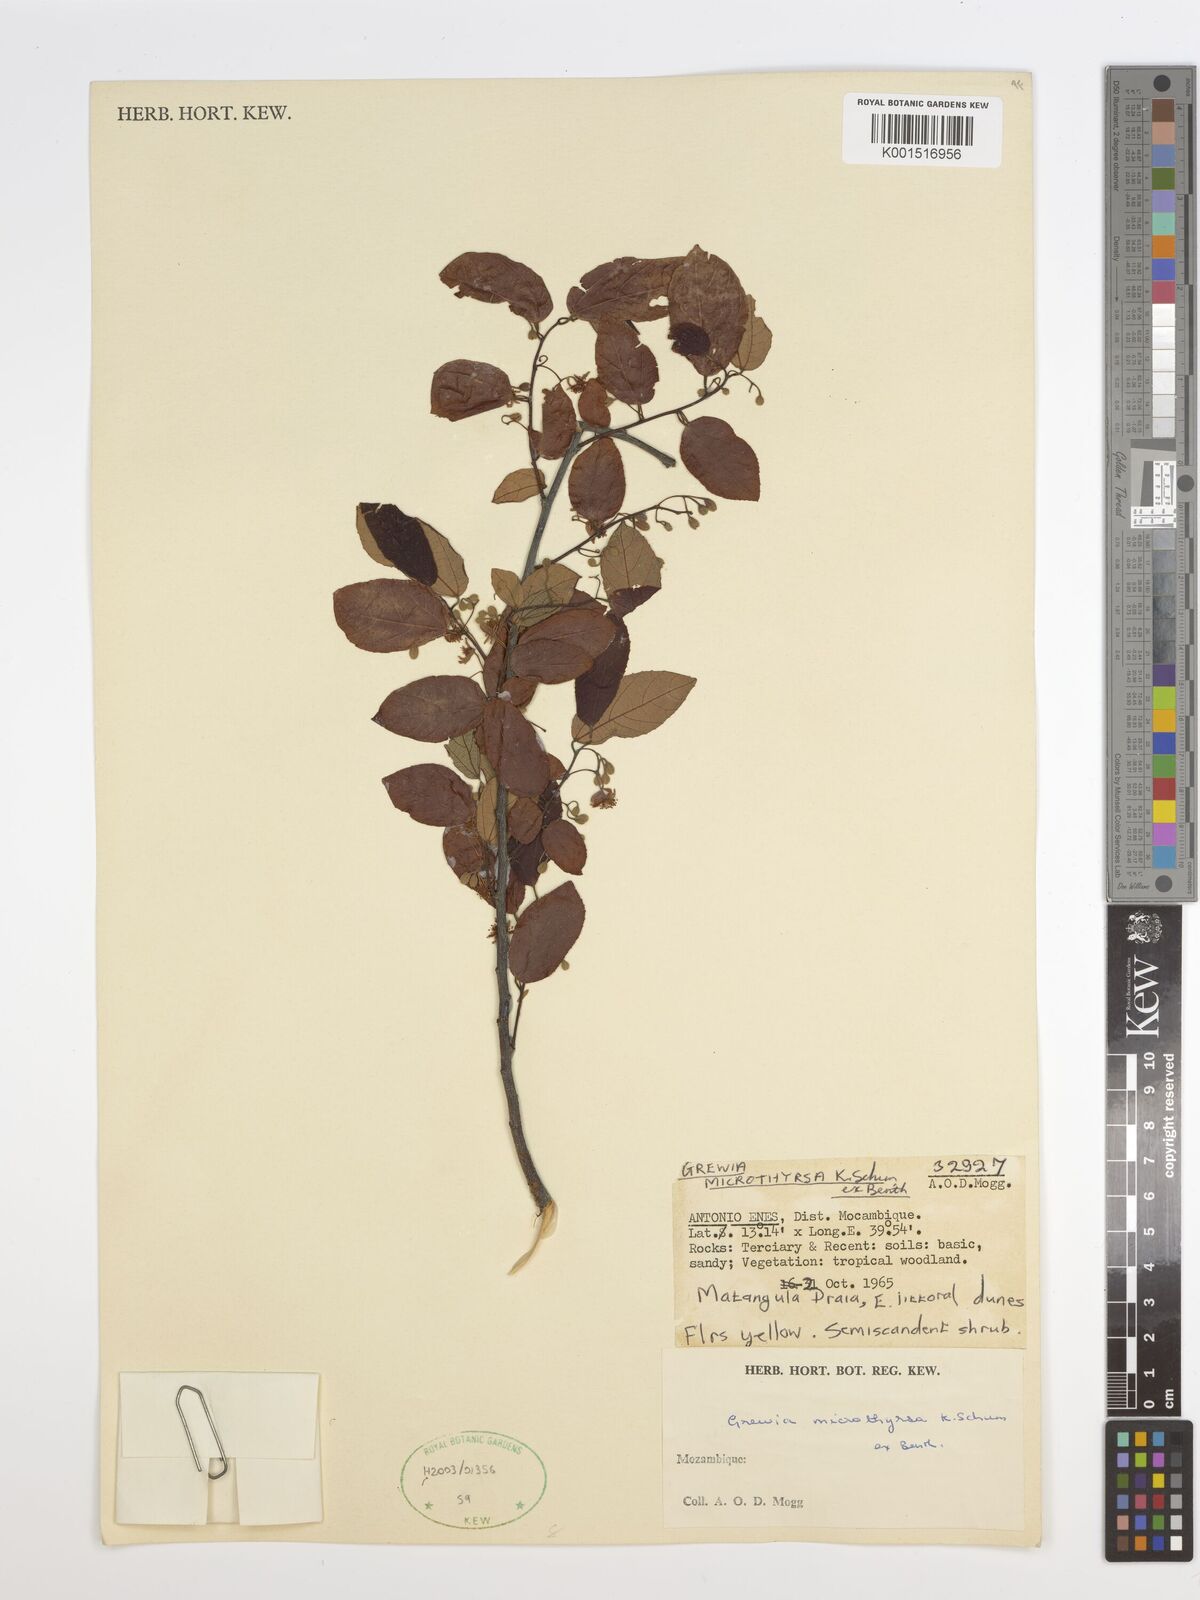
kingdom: Plantae
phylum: Tracheophyta
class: Magnoliopsida
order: Malvales
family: Malvaceae
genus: Microcos
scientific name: Microcos microthyrsa
